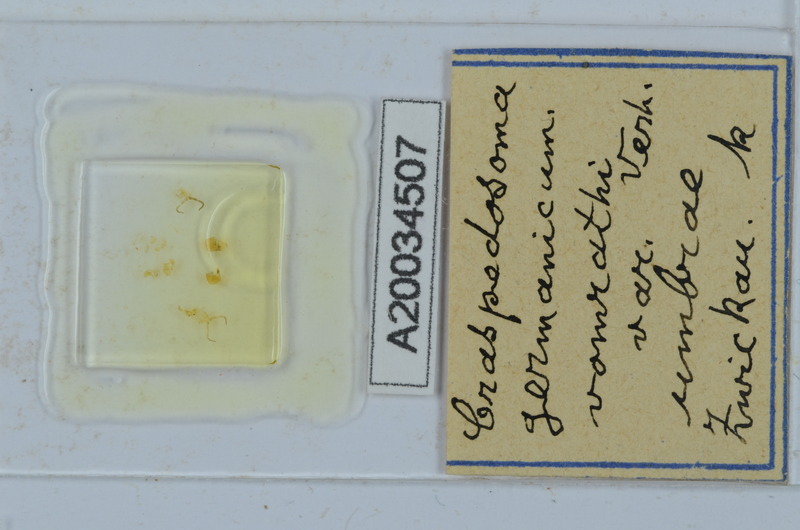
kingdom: Animalia
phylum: Arthropoda
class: Diplopoda
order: Chordeumatida
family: Craspedosomatidae
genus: Craspedosoma
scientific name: Craspedosoma rawlinsii
